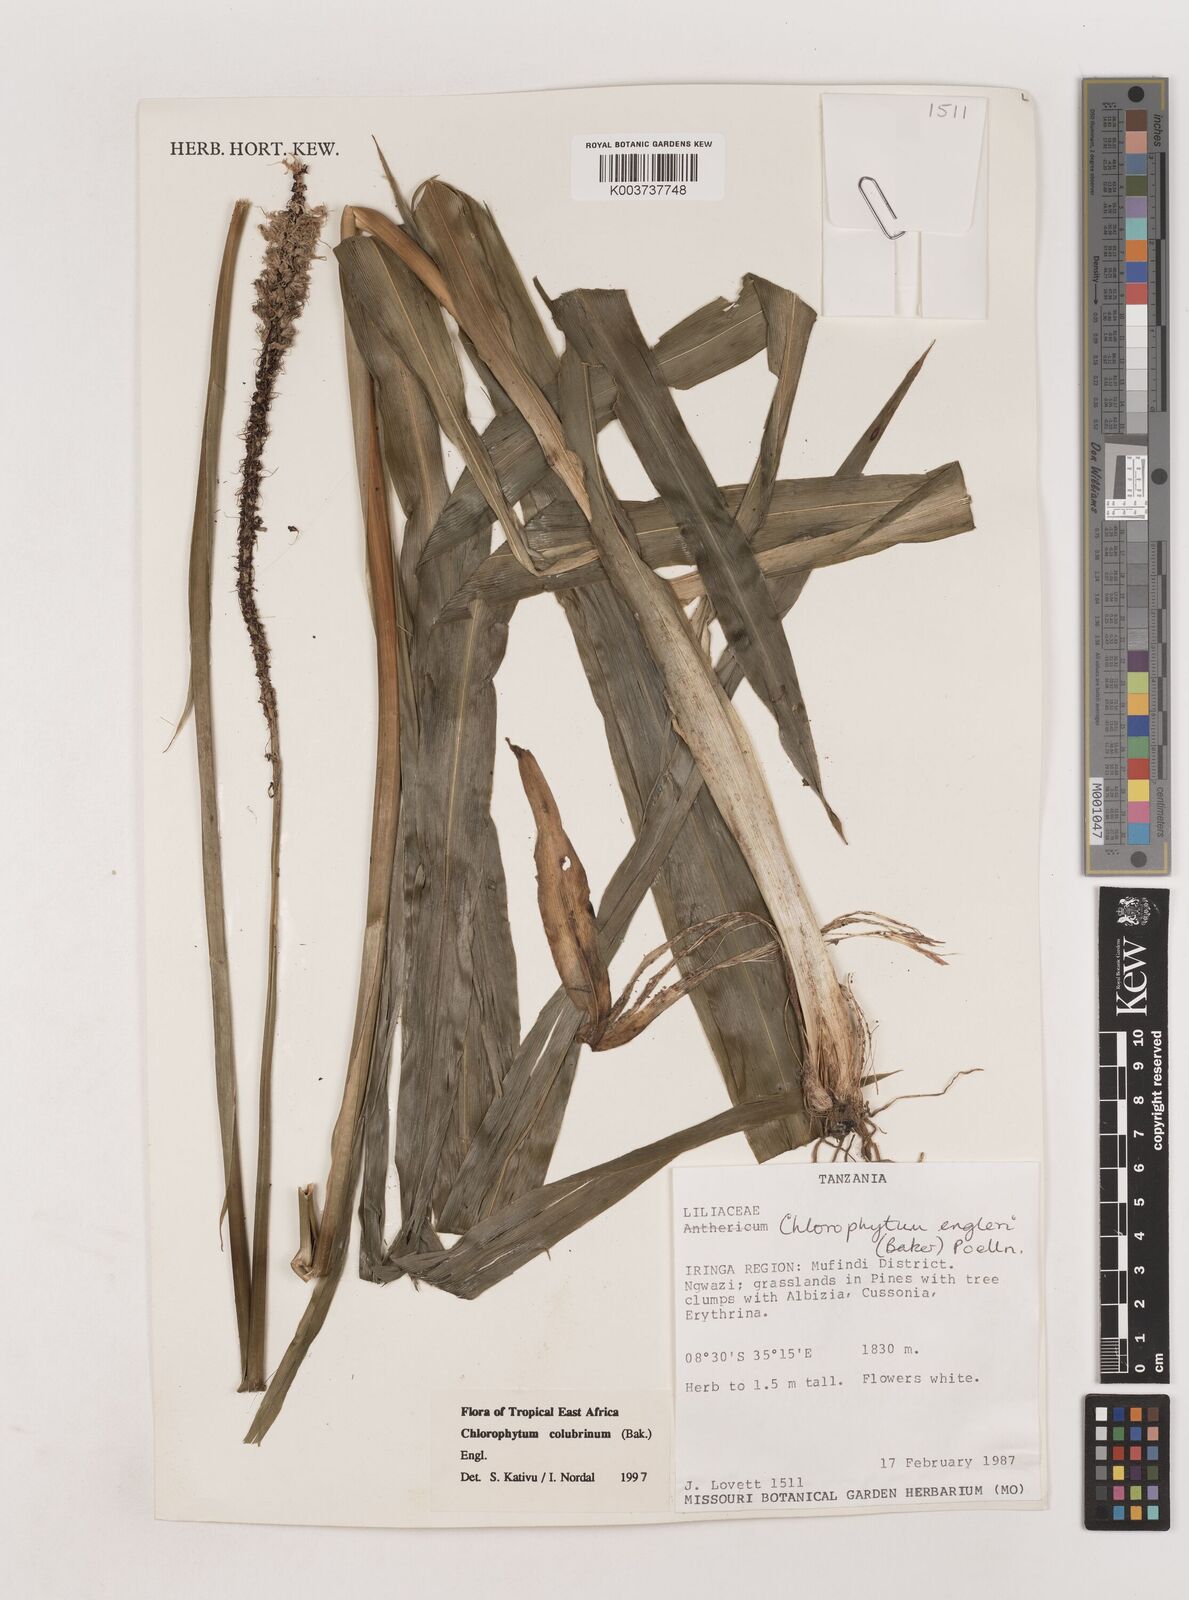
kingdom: Plantae
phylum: Tracheophyta
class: Liliopsida
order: Asparagales
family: Asparagaceae
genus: Chlorophytum
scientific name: Chlorophytum colubrinum
